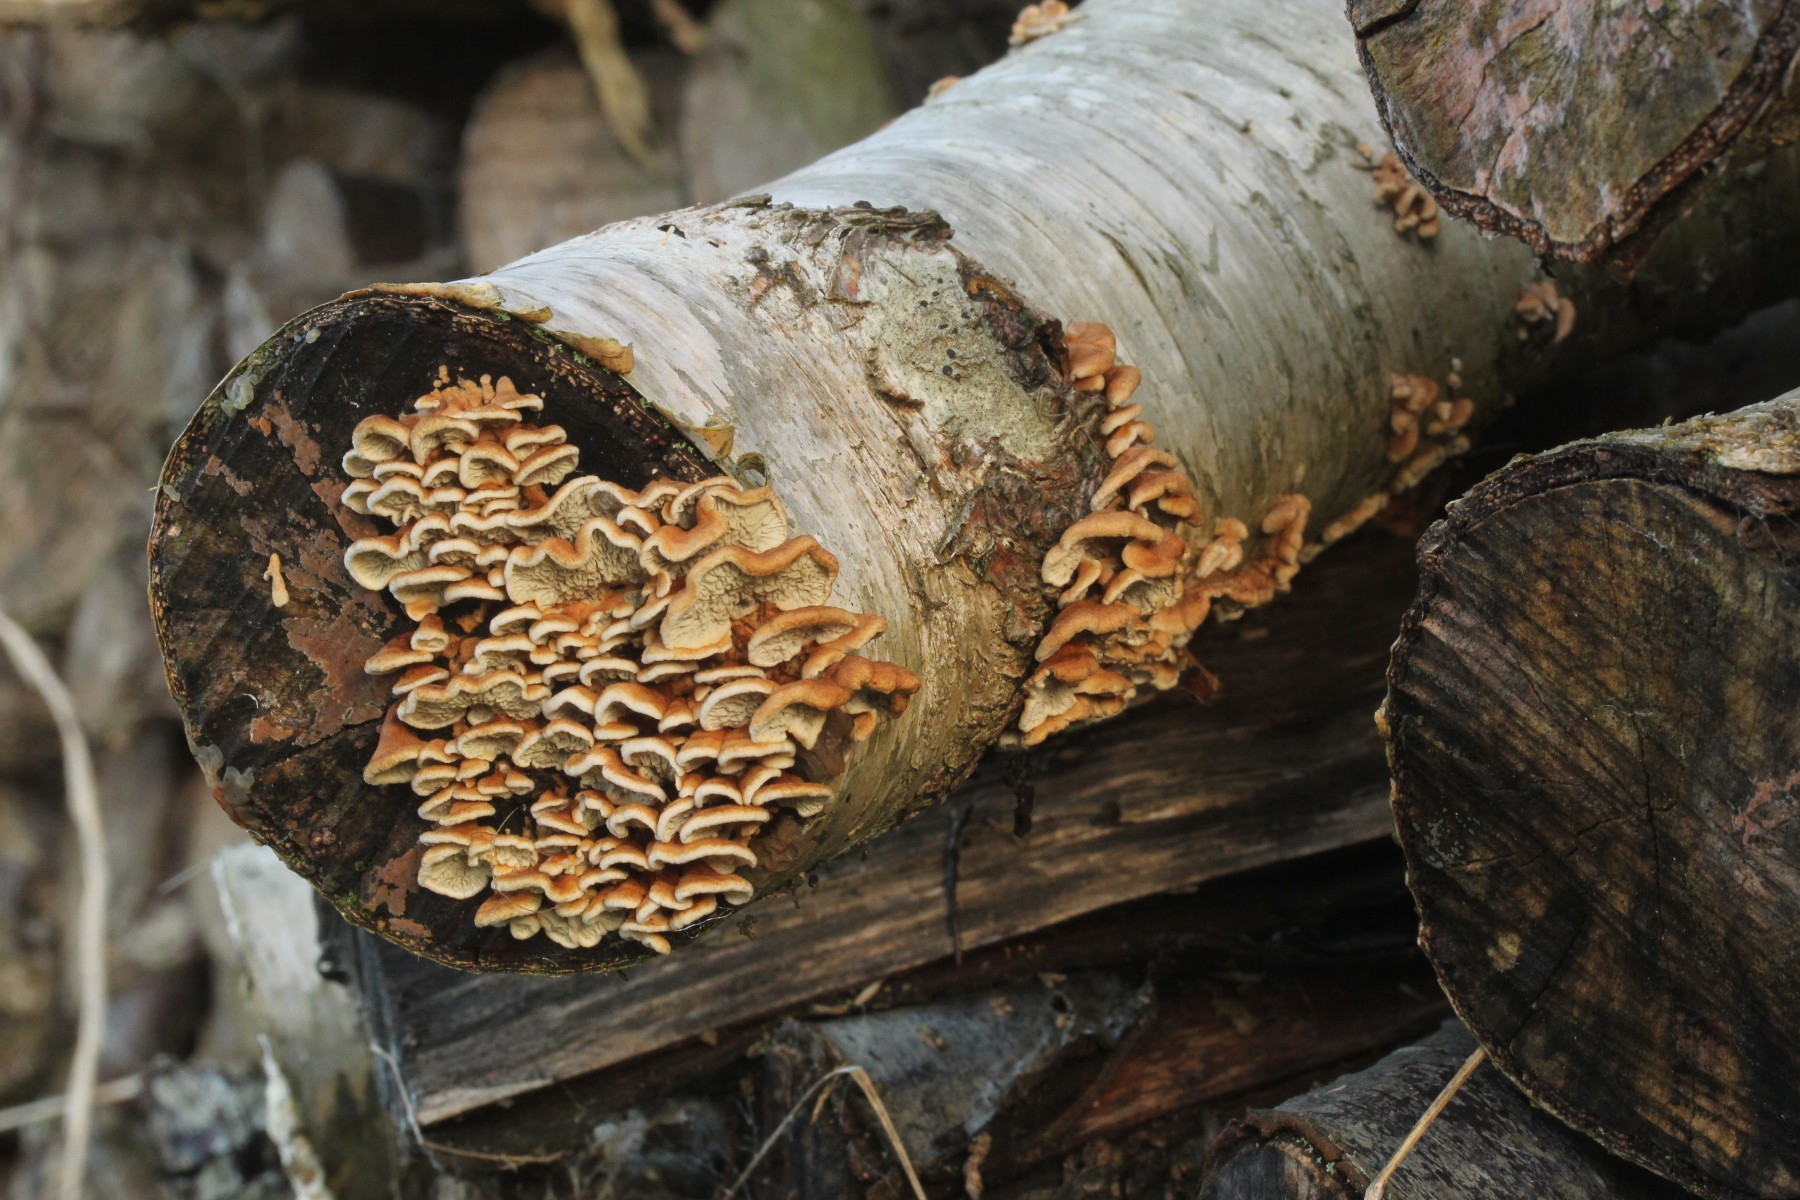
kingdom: Fungi
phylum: Basidiomycota
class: Agaricomycetes
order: Amylocorticiales
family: Amylocorticiaceae
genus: Plicaturopsis
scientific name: Plicaturopsis crispa
